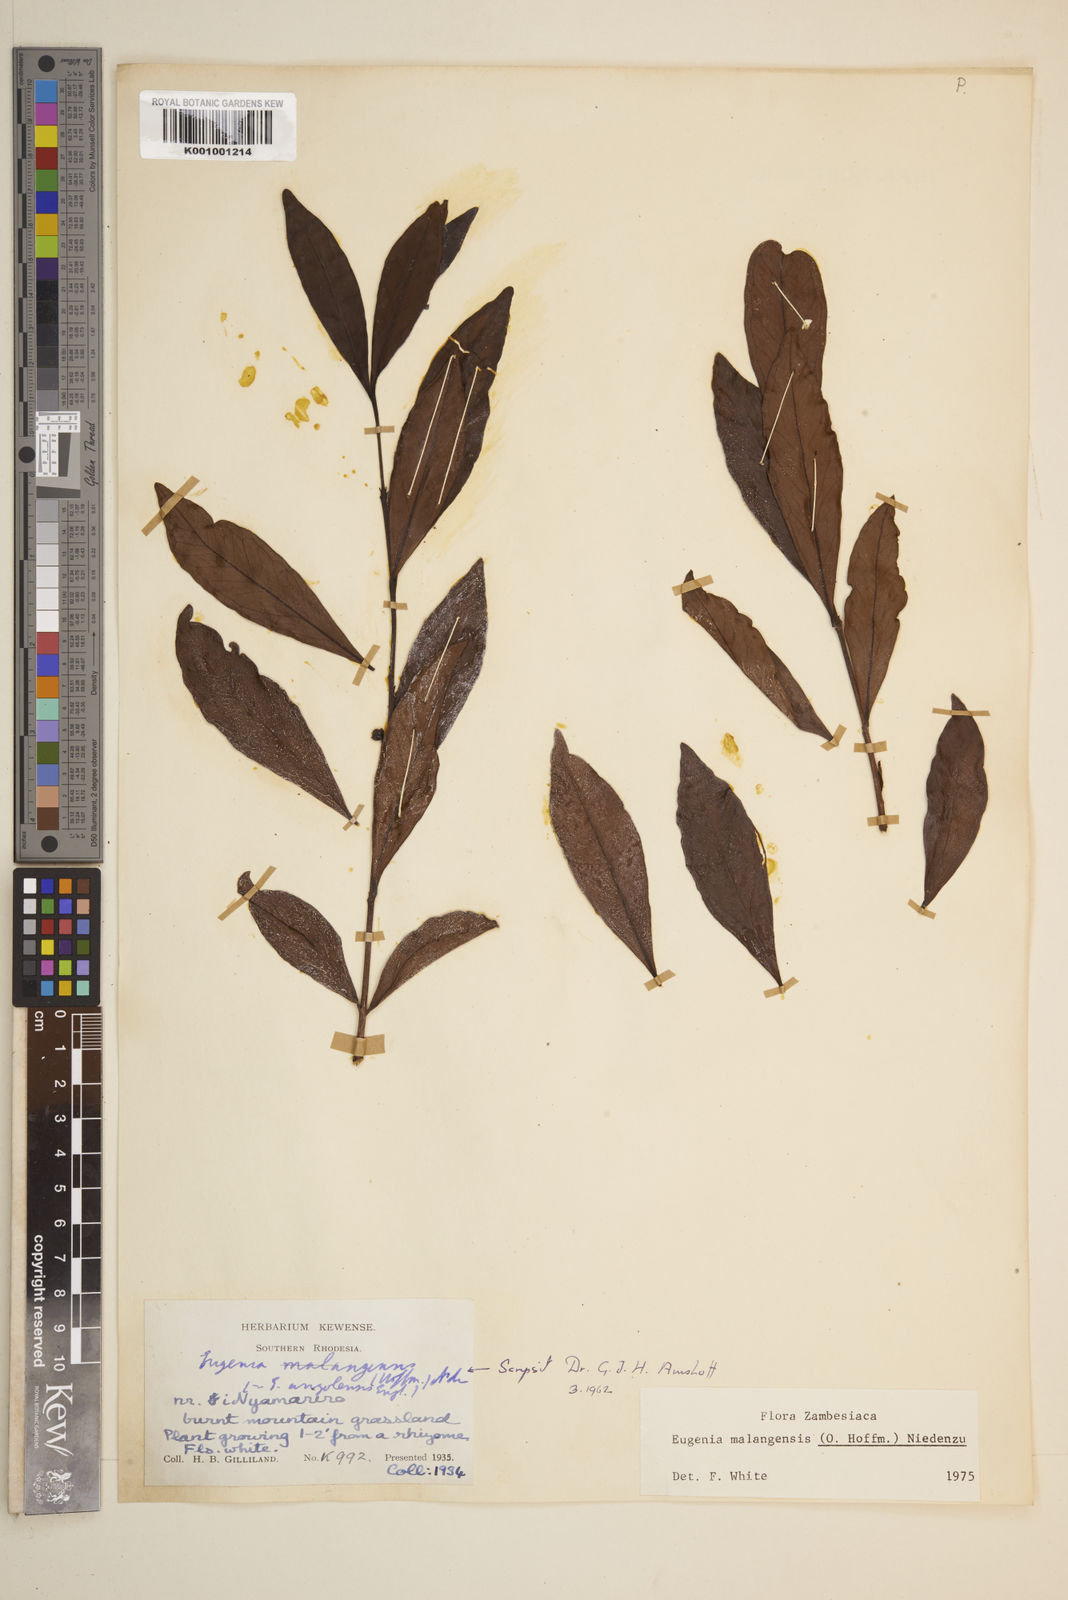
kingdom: Plantae
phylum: Tracheophyta
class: Magnoliopsida
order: Myrtales
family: Myrtaceae
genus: Eugenia
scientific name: Eugenia malangensis
